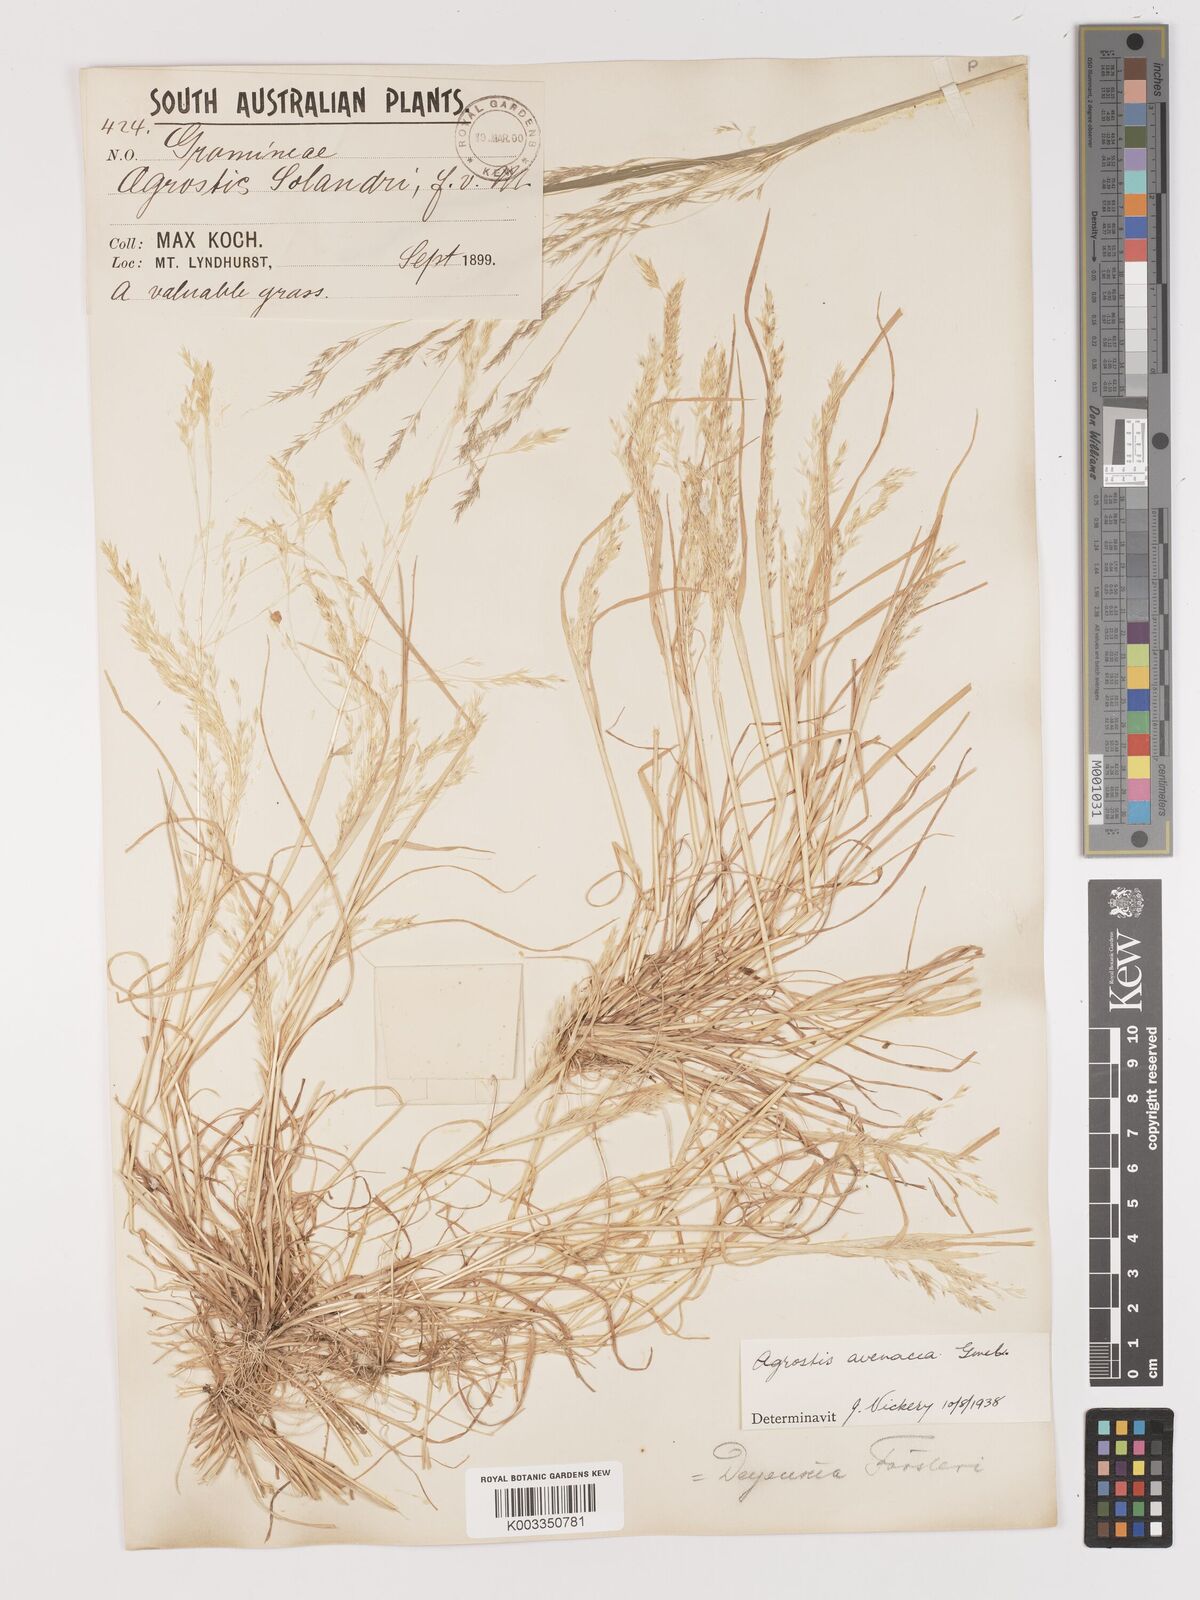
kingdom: Plantae
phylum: Tracheophyta
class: Liliopsida
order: Poales
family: Poaceae
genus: Lachnagrostis
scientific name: Lachnagrostis filiformis
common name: Bentgrass
